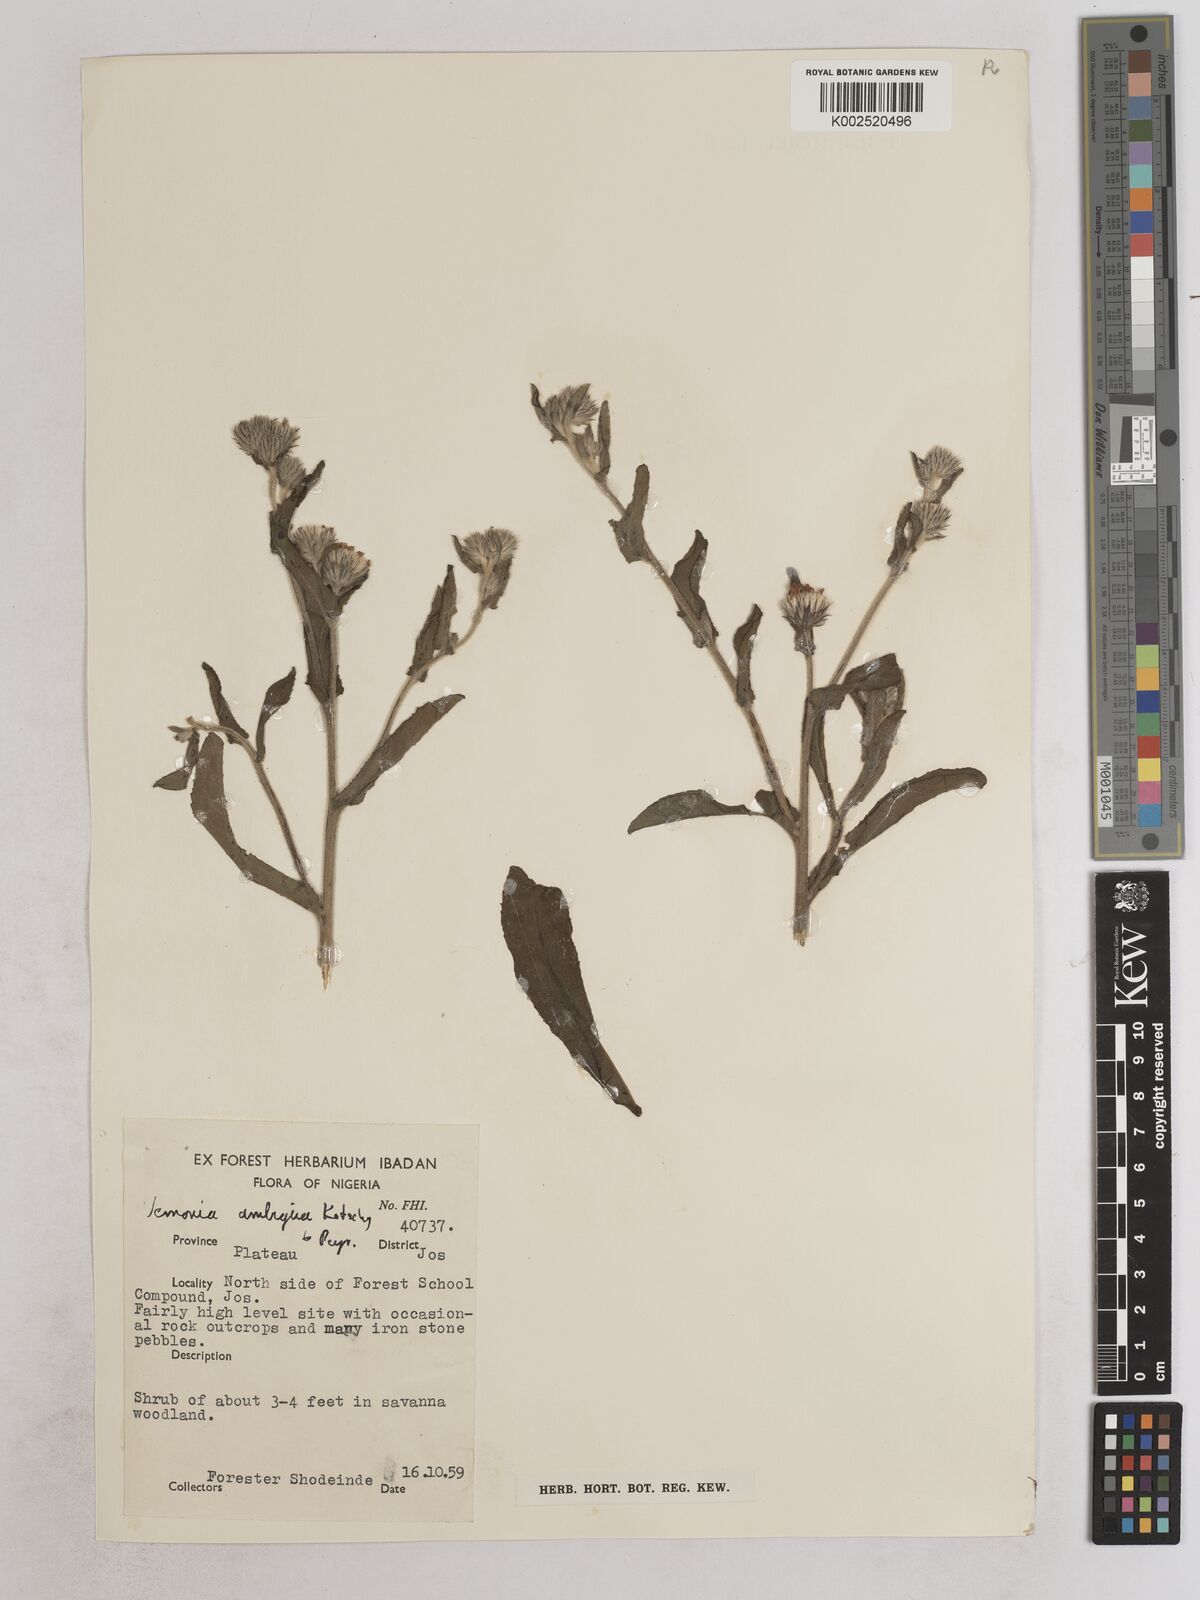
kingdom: Plantae
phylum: Tracheophyta
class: Magnoliopsida
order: Asterales
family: Asteraceae
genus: Vernoniastrum
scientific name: Vernoniastrum ambiguum
